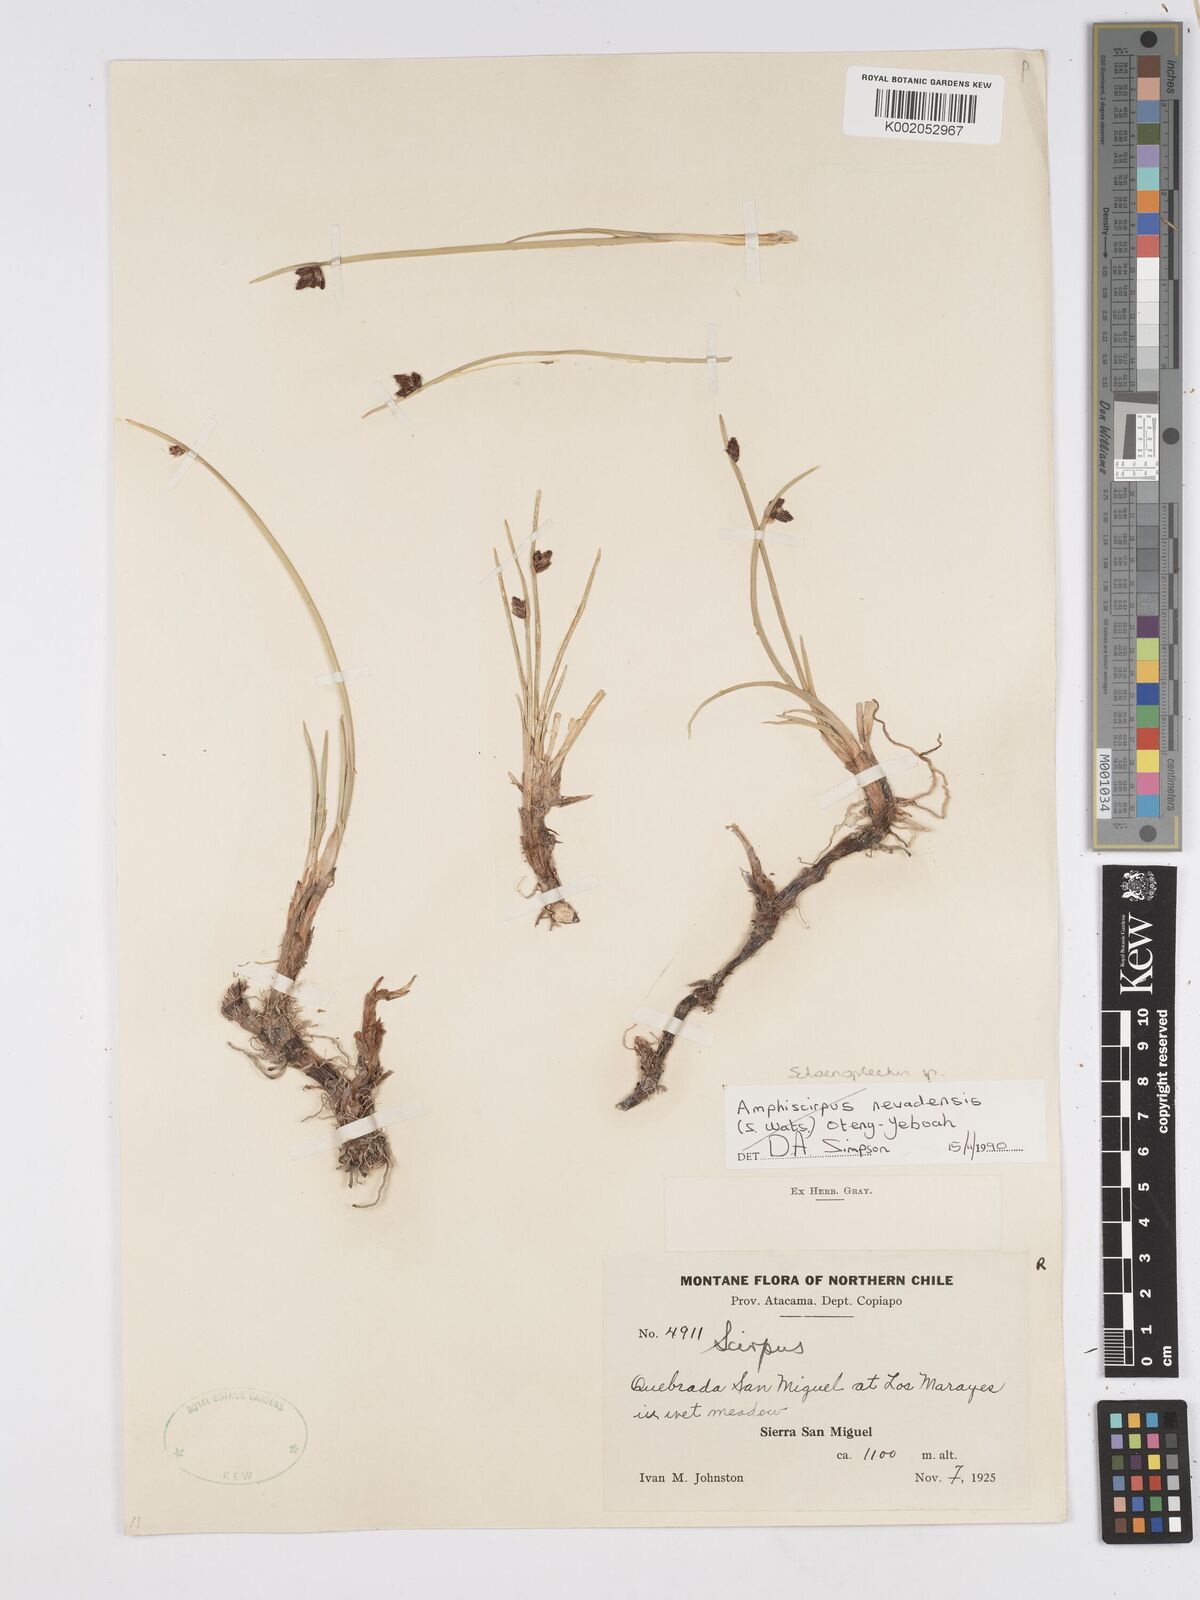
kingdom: Plantae
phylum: Tracheophyta
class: Liliopsida
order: Poales
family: Cyperaceae
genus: Scirpus
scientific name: Scirpus
